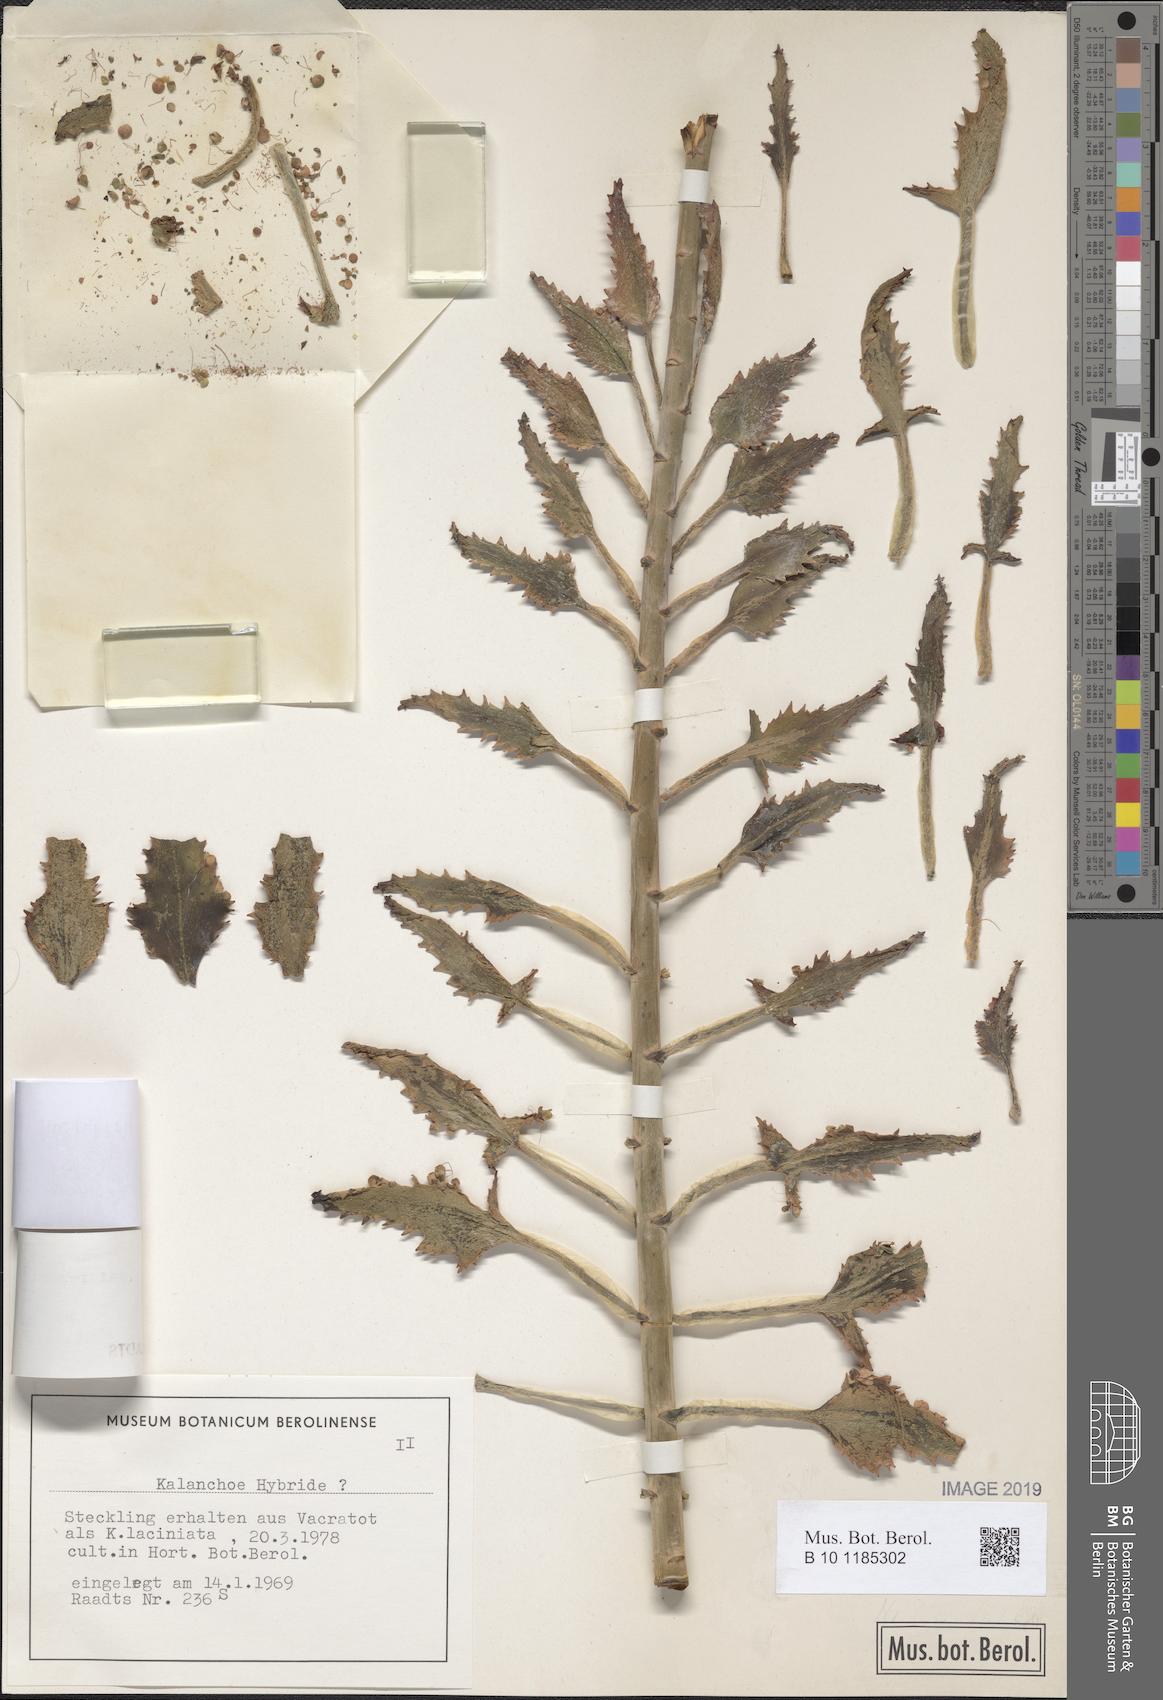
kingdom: Plantae
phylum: Tracheophyta
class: Magnoliopsida
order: Saxifragales
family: Crassulaceae
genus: Kalanchoe
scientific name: Kalanchoe houghtonii
